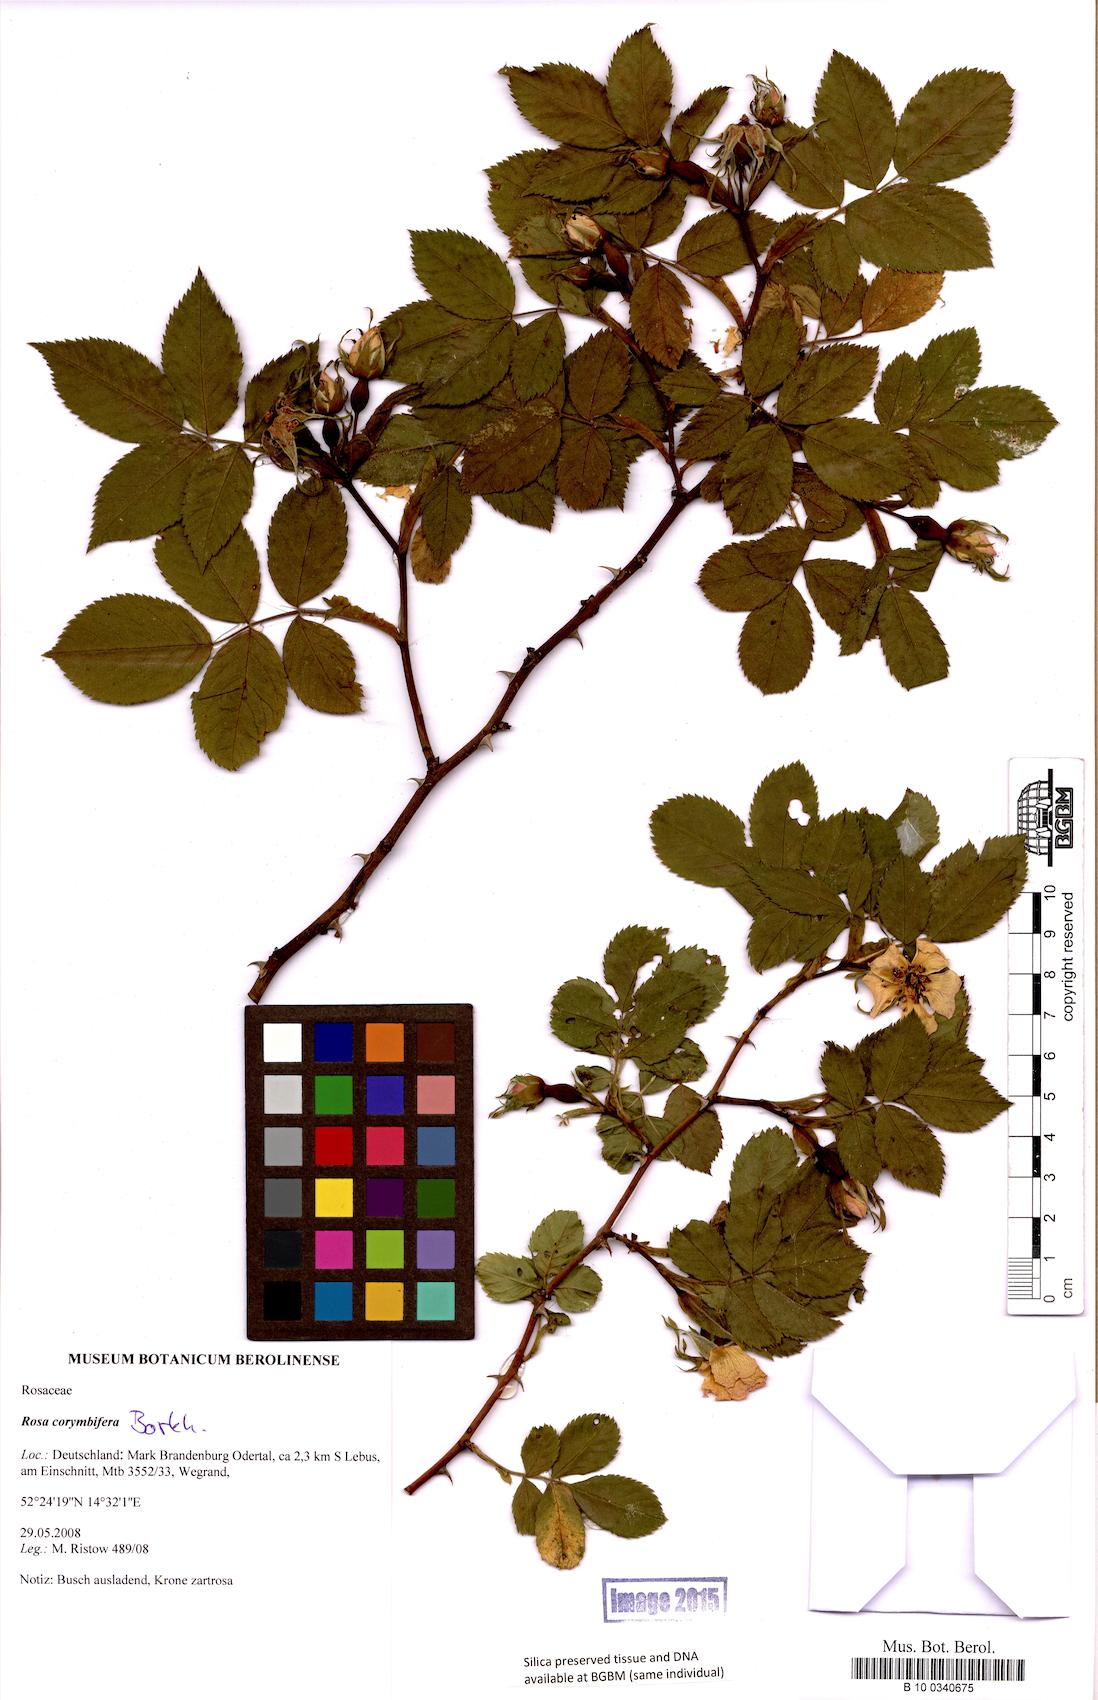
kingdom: Plantae
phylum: Tracheophyta
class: Magnoliopsida
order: Rosales
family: Rosaceae
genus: Rosa
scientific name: Rosa corymbifera
